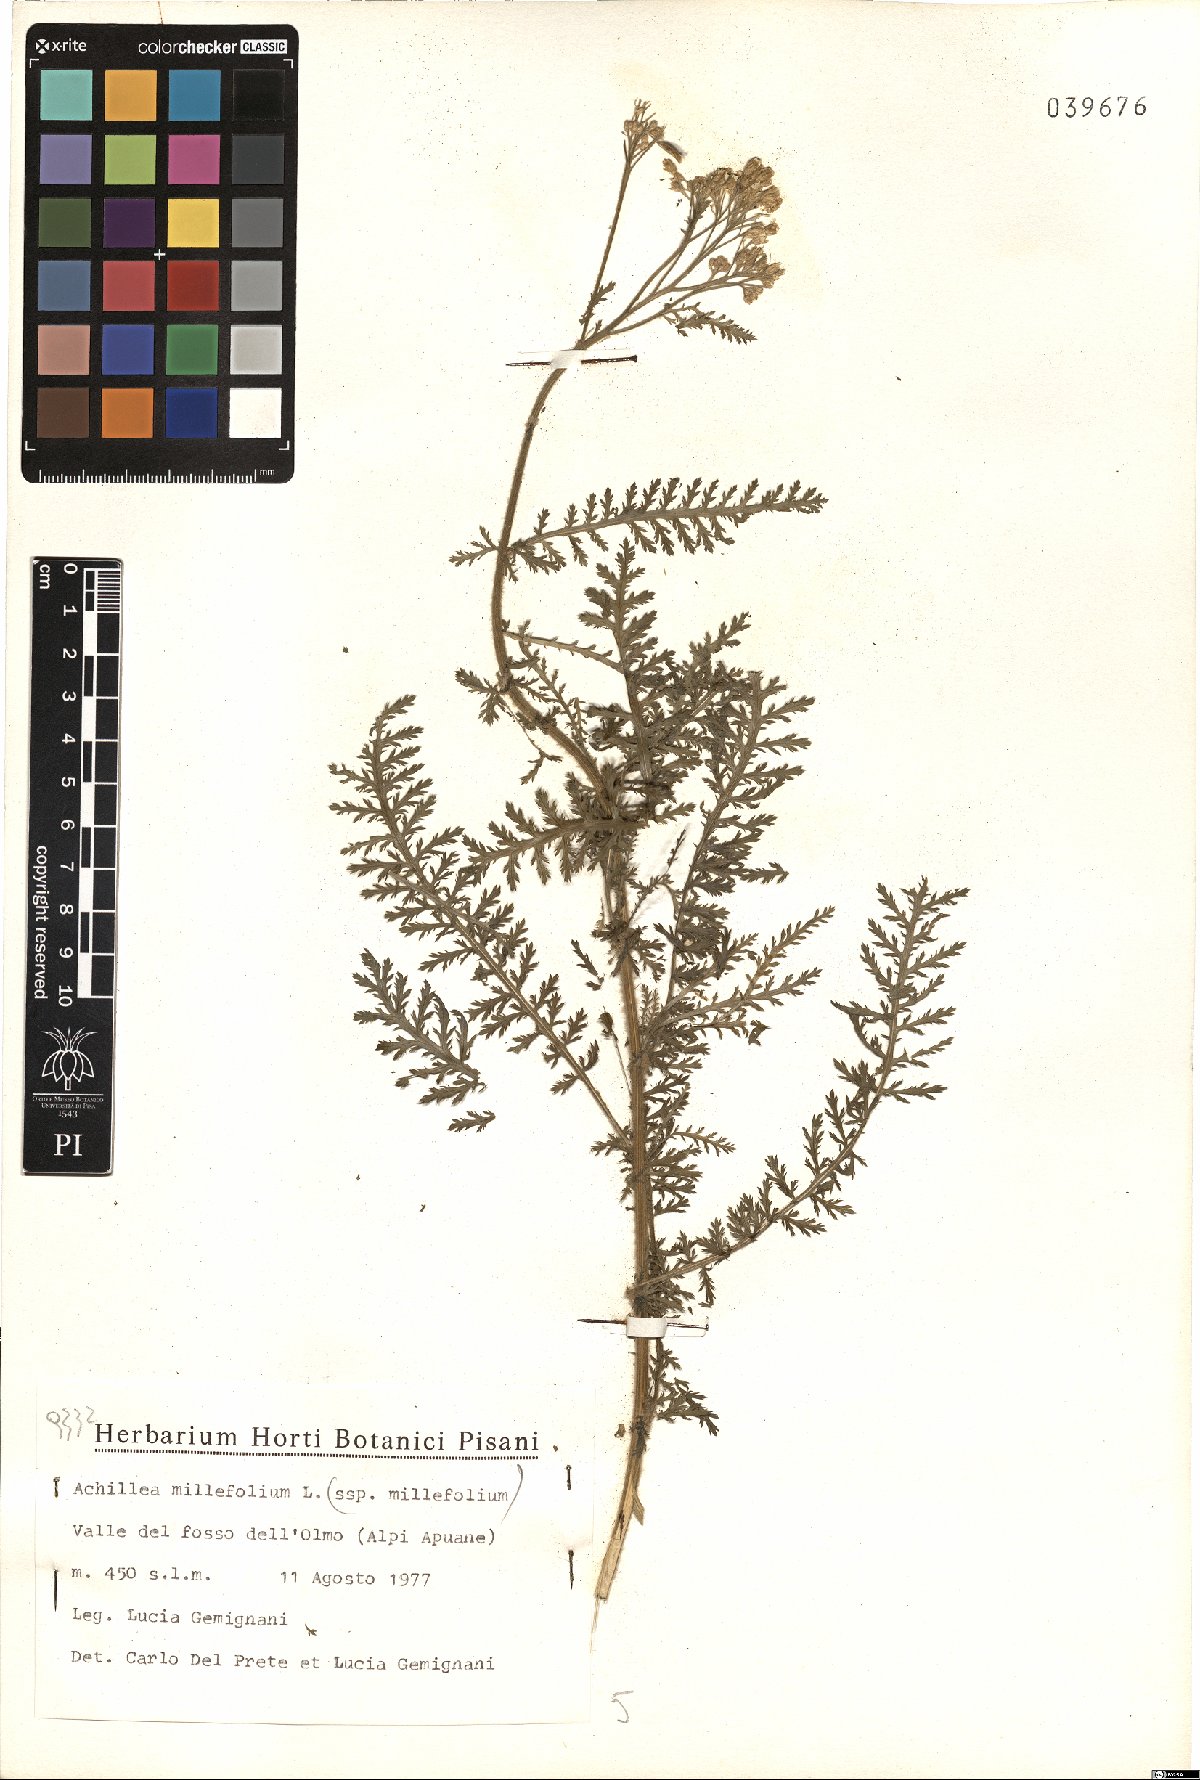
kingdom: Plantae
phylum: Tracheophyta
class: Magnoliopsida
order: Asterales
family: Asteraceae
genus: Achillea
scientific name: Achillea millefolium
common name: Yarrow
